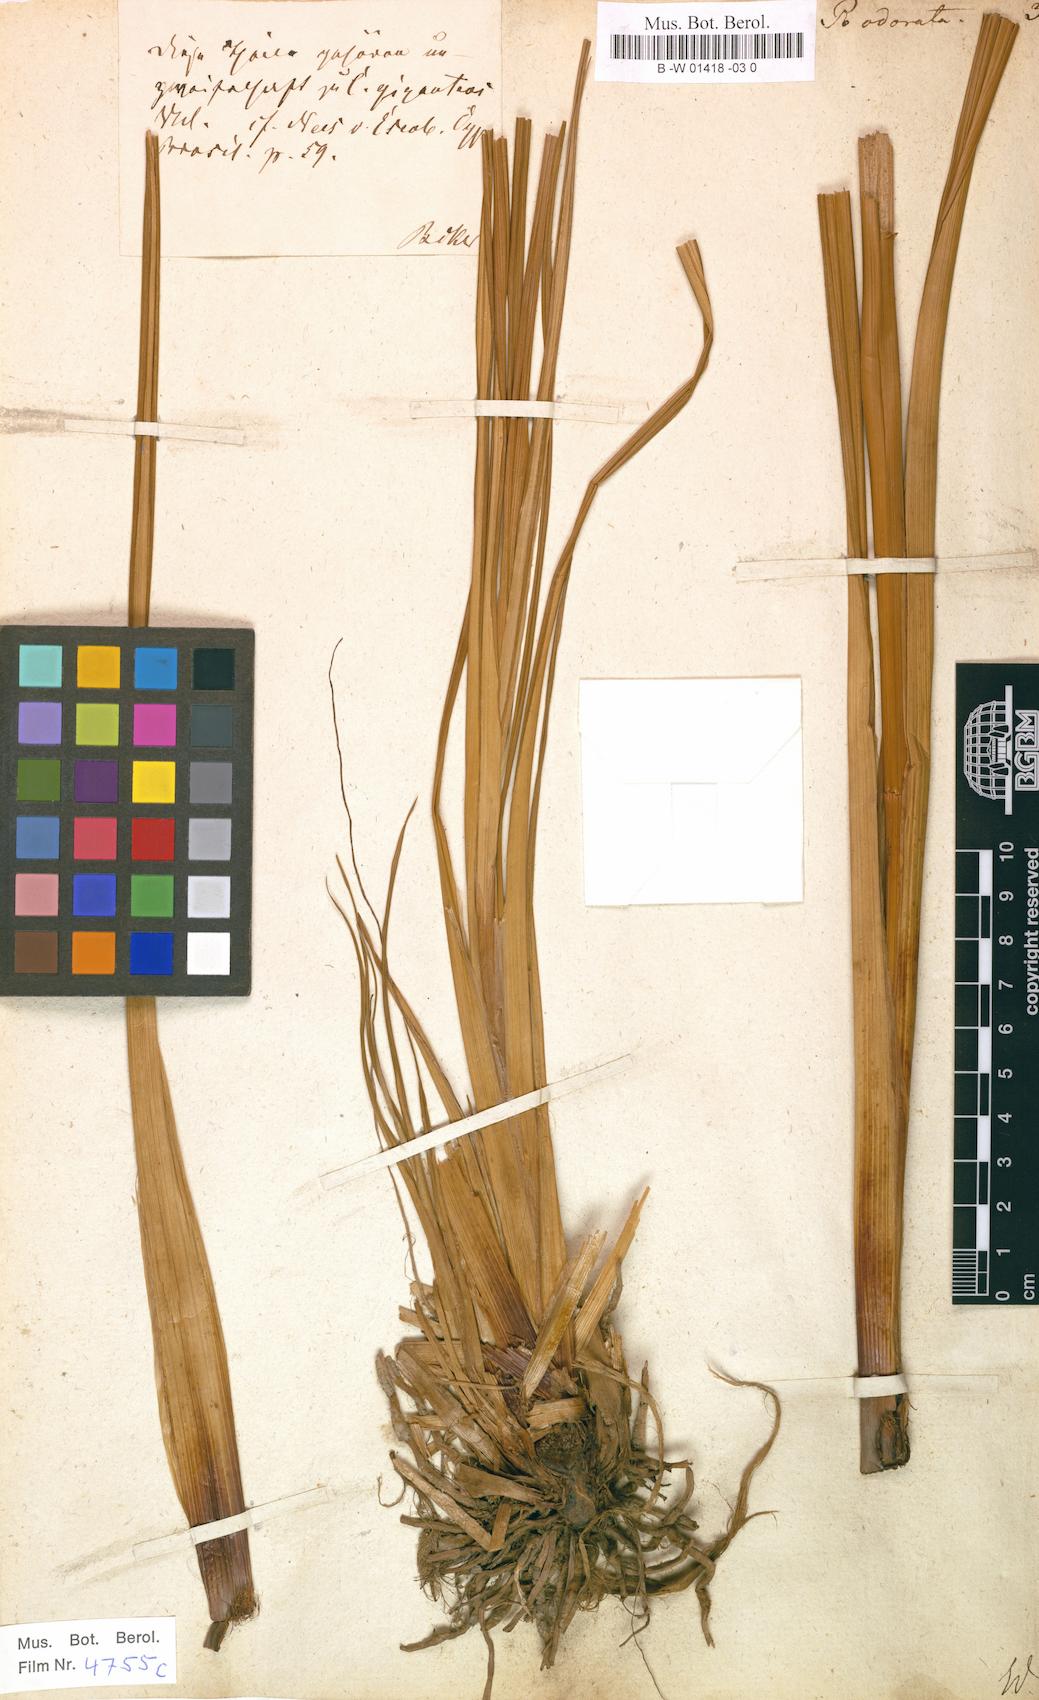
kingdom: Plantae
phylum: Tracheophyta
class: Liliopsida
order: Poales
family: Cyperaceae
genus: Cyperus
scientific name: Cyperus odoratus
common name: Fragrant flatsedge
